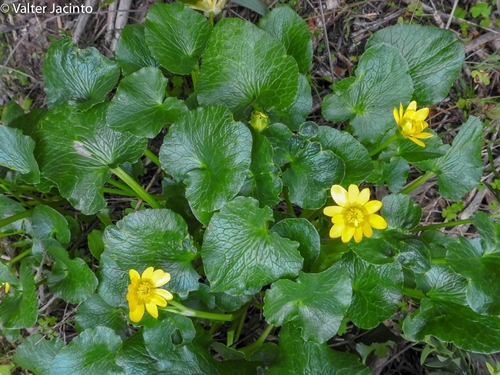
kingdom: Plantae
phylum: Tracheophyta
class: Magnoliopsida
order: Ranunculales
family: Ranunculaceae
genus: Ficaria
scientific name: Ficaria verna
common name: Lesser celandine
